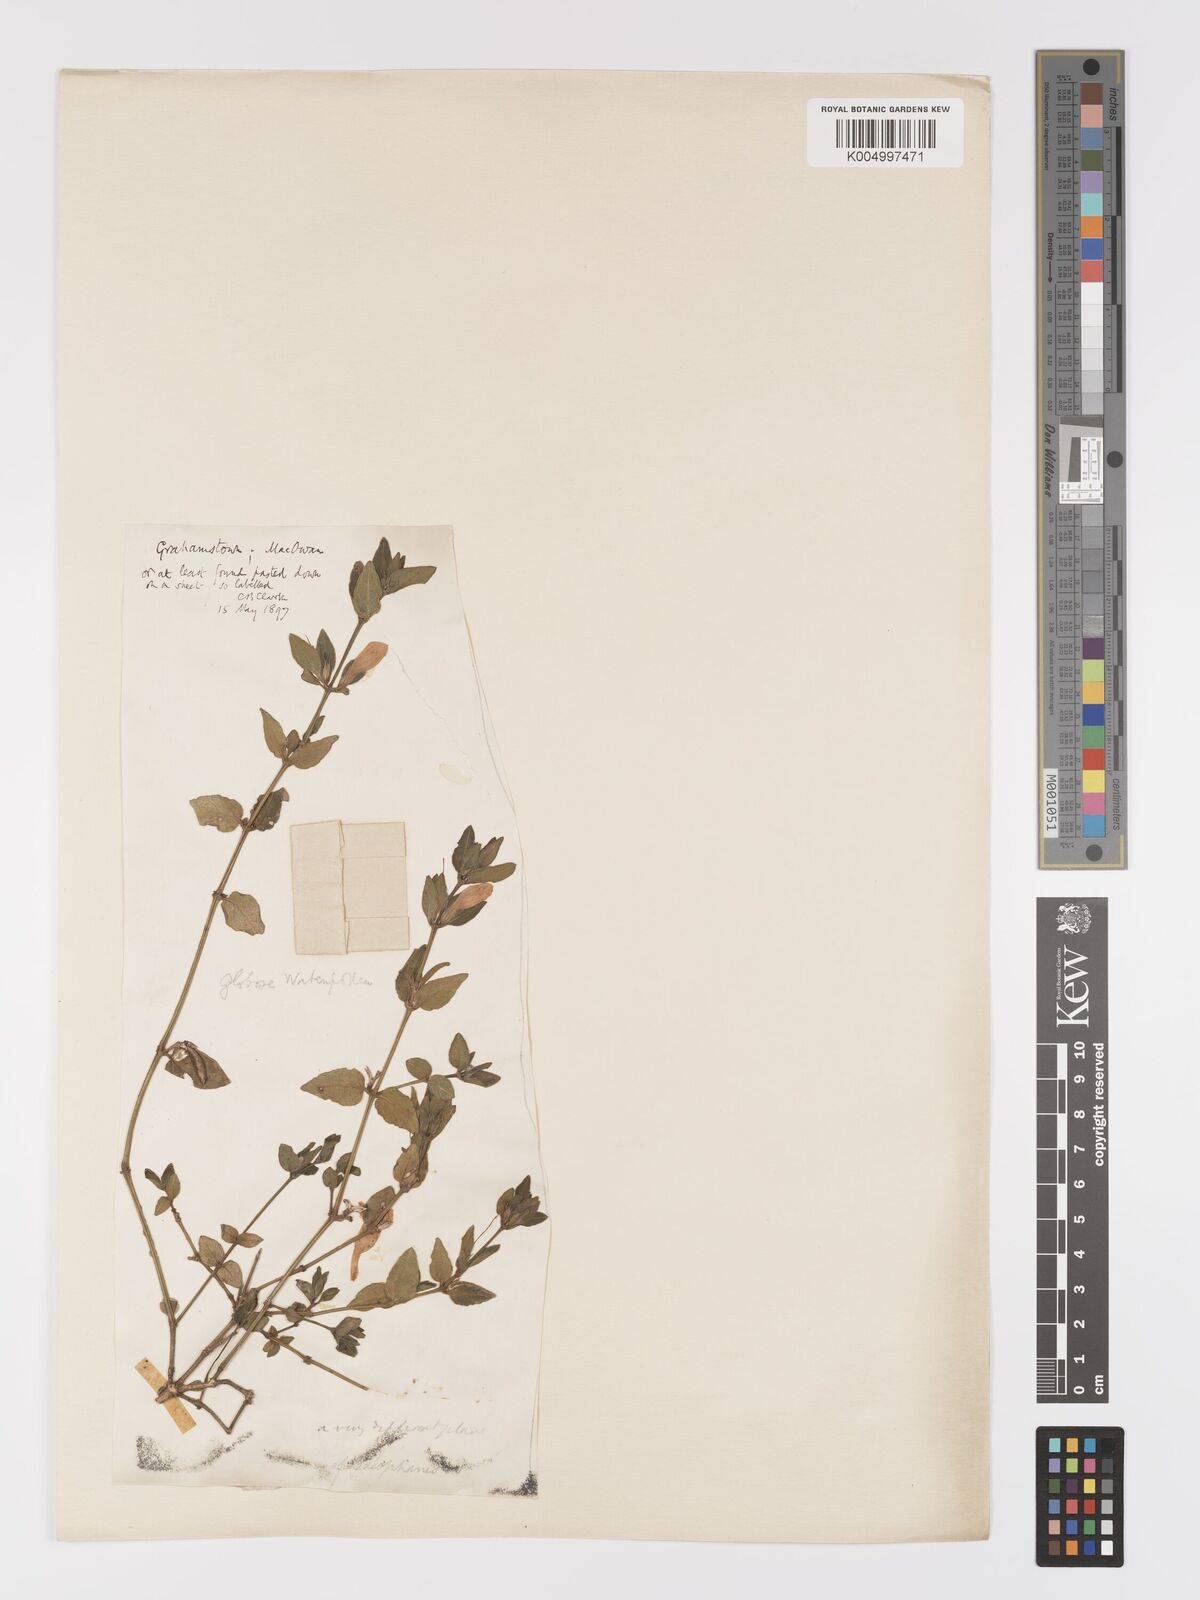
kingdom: Plantae
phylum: Tracheophyta
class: Magnoliopsida
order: Lamiales
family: Acanthaceae
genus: Ruellia
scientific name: Ruellia cordata
